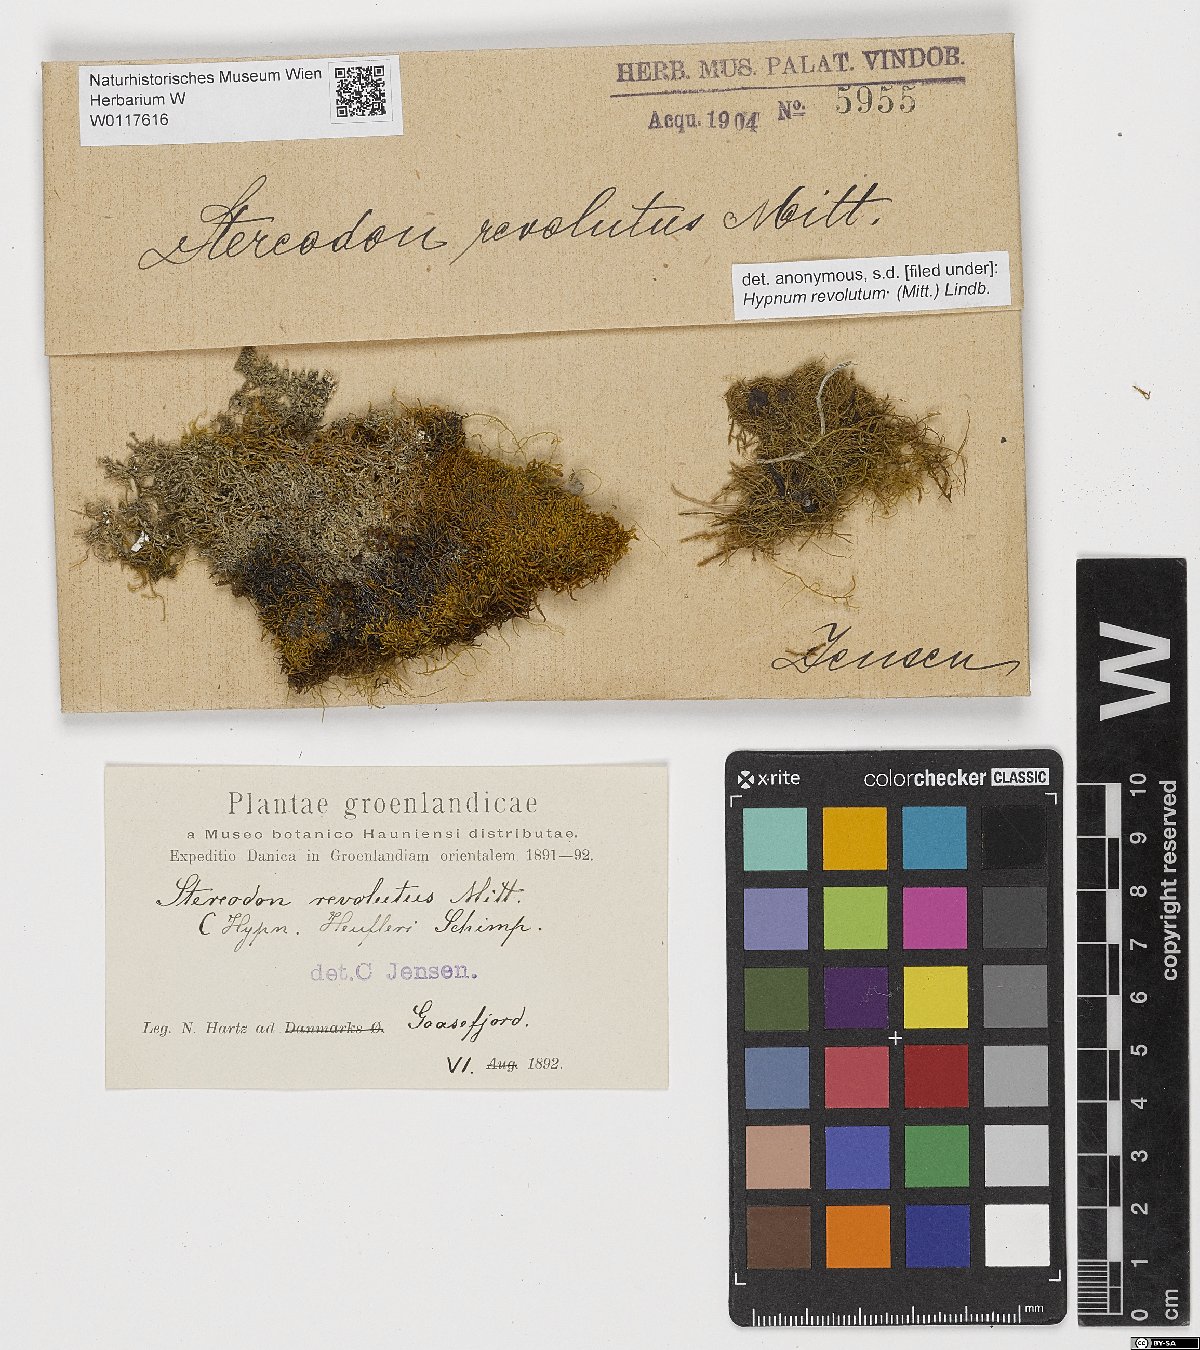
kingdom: Plantae
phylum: Bryophyta
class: Bryopsida
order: Hypnales
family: Pylaisiaceae
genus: Roaldia
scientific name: Roaldia revoluta
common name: Revolute plait-moss
